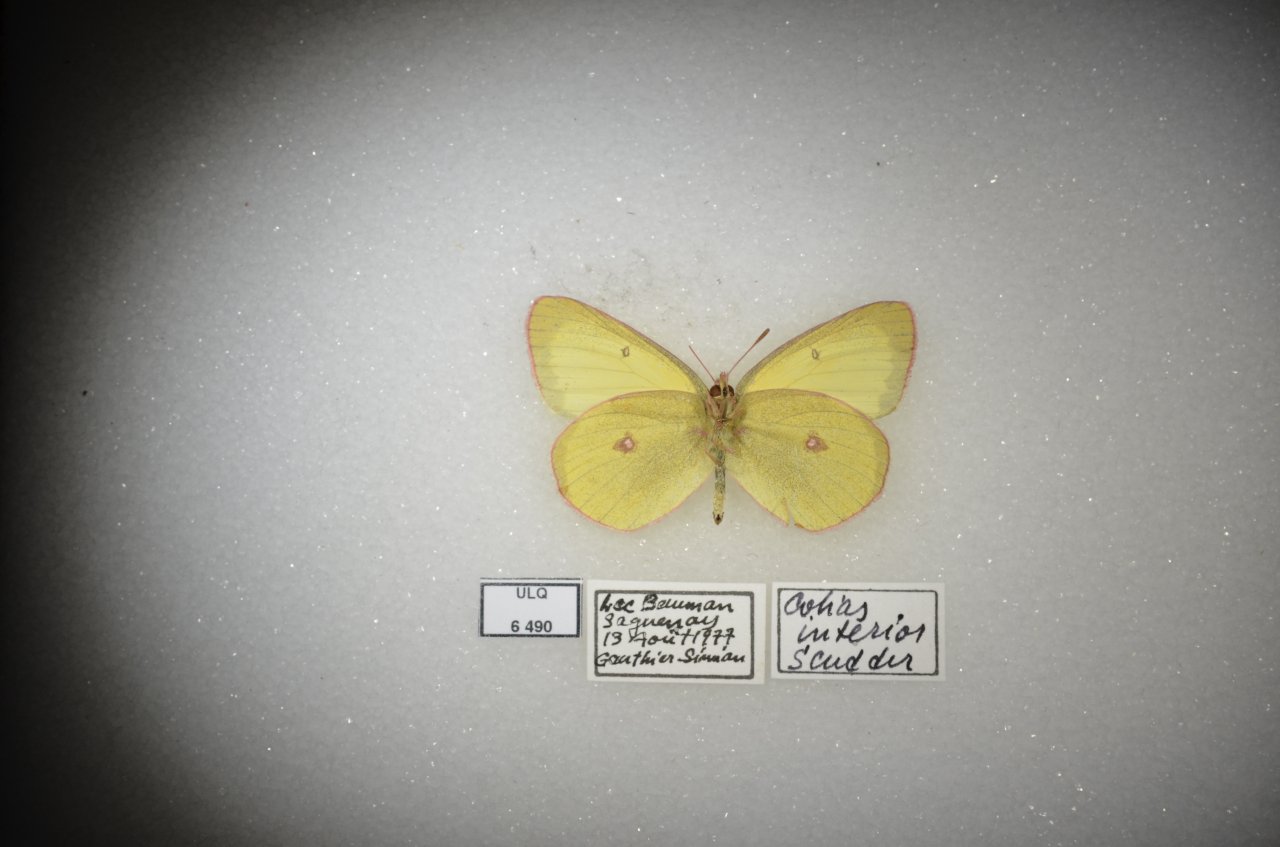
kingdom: Animalia
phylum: Arthropoda
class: Insecta
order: Lepidoptera
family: Pieridae
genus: Colias
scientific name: Colias interior
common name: Pink-edged Sulphur
